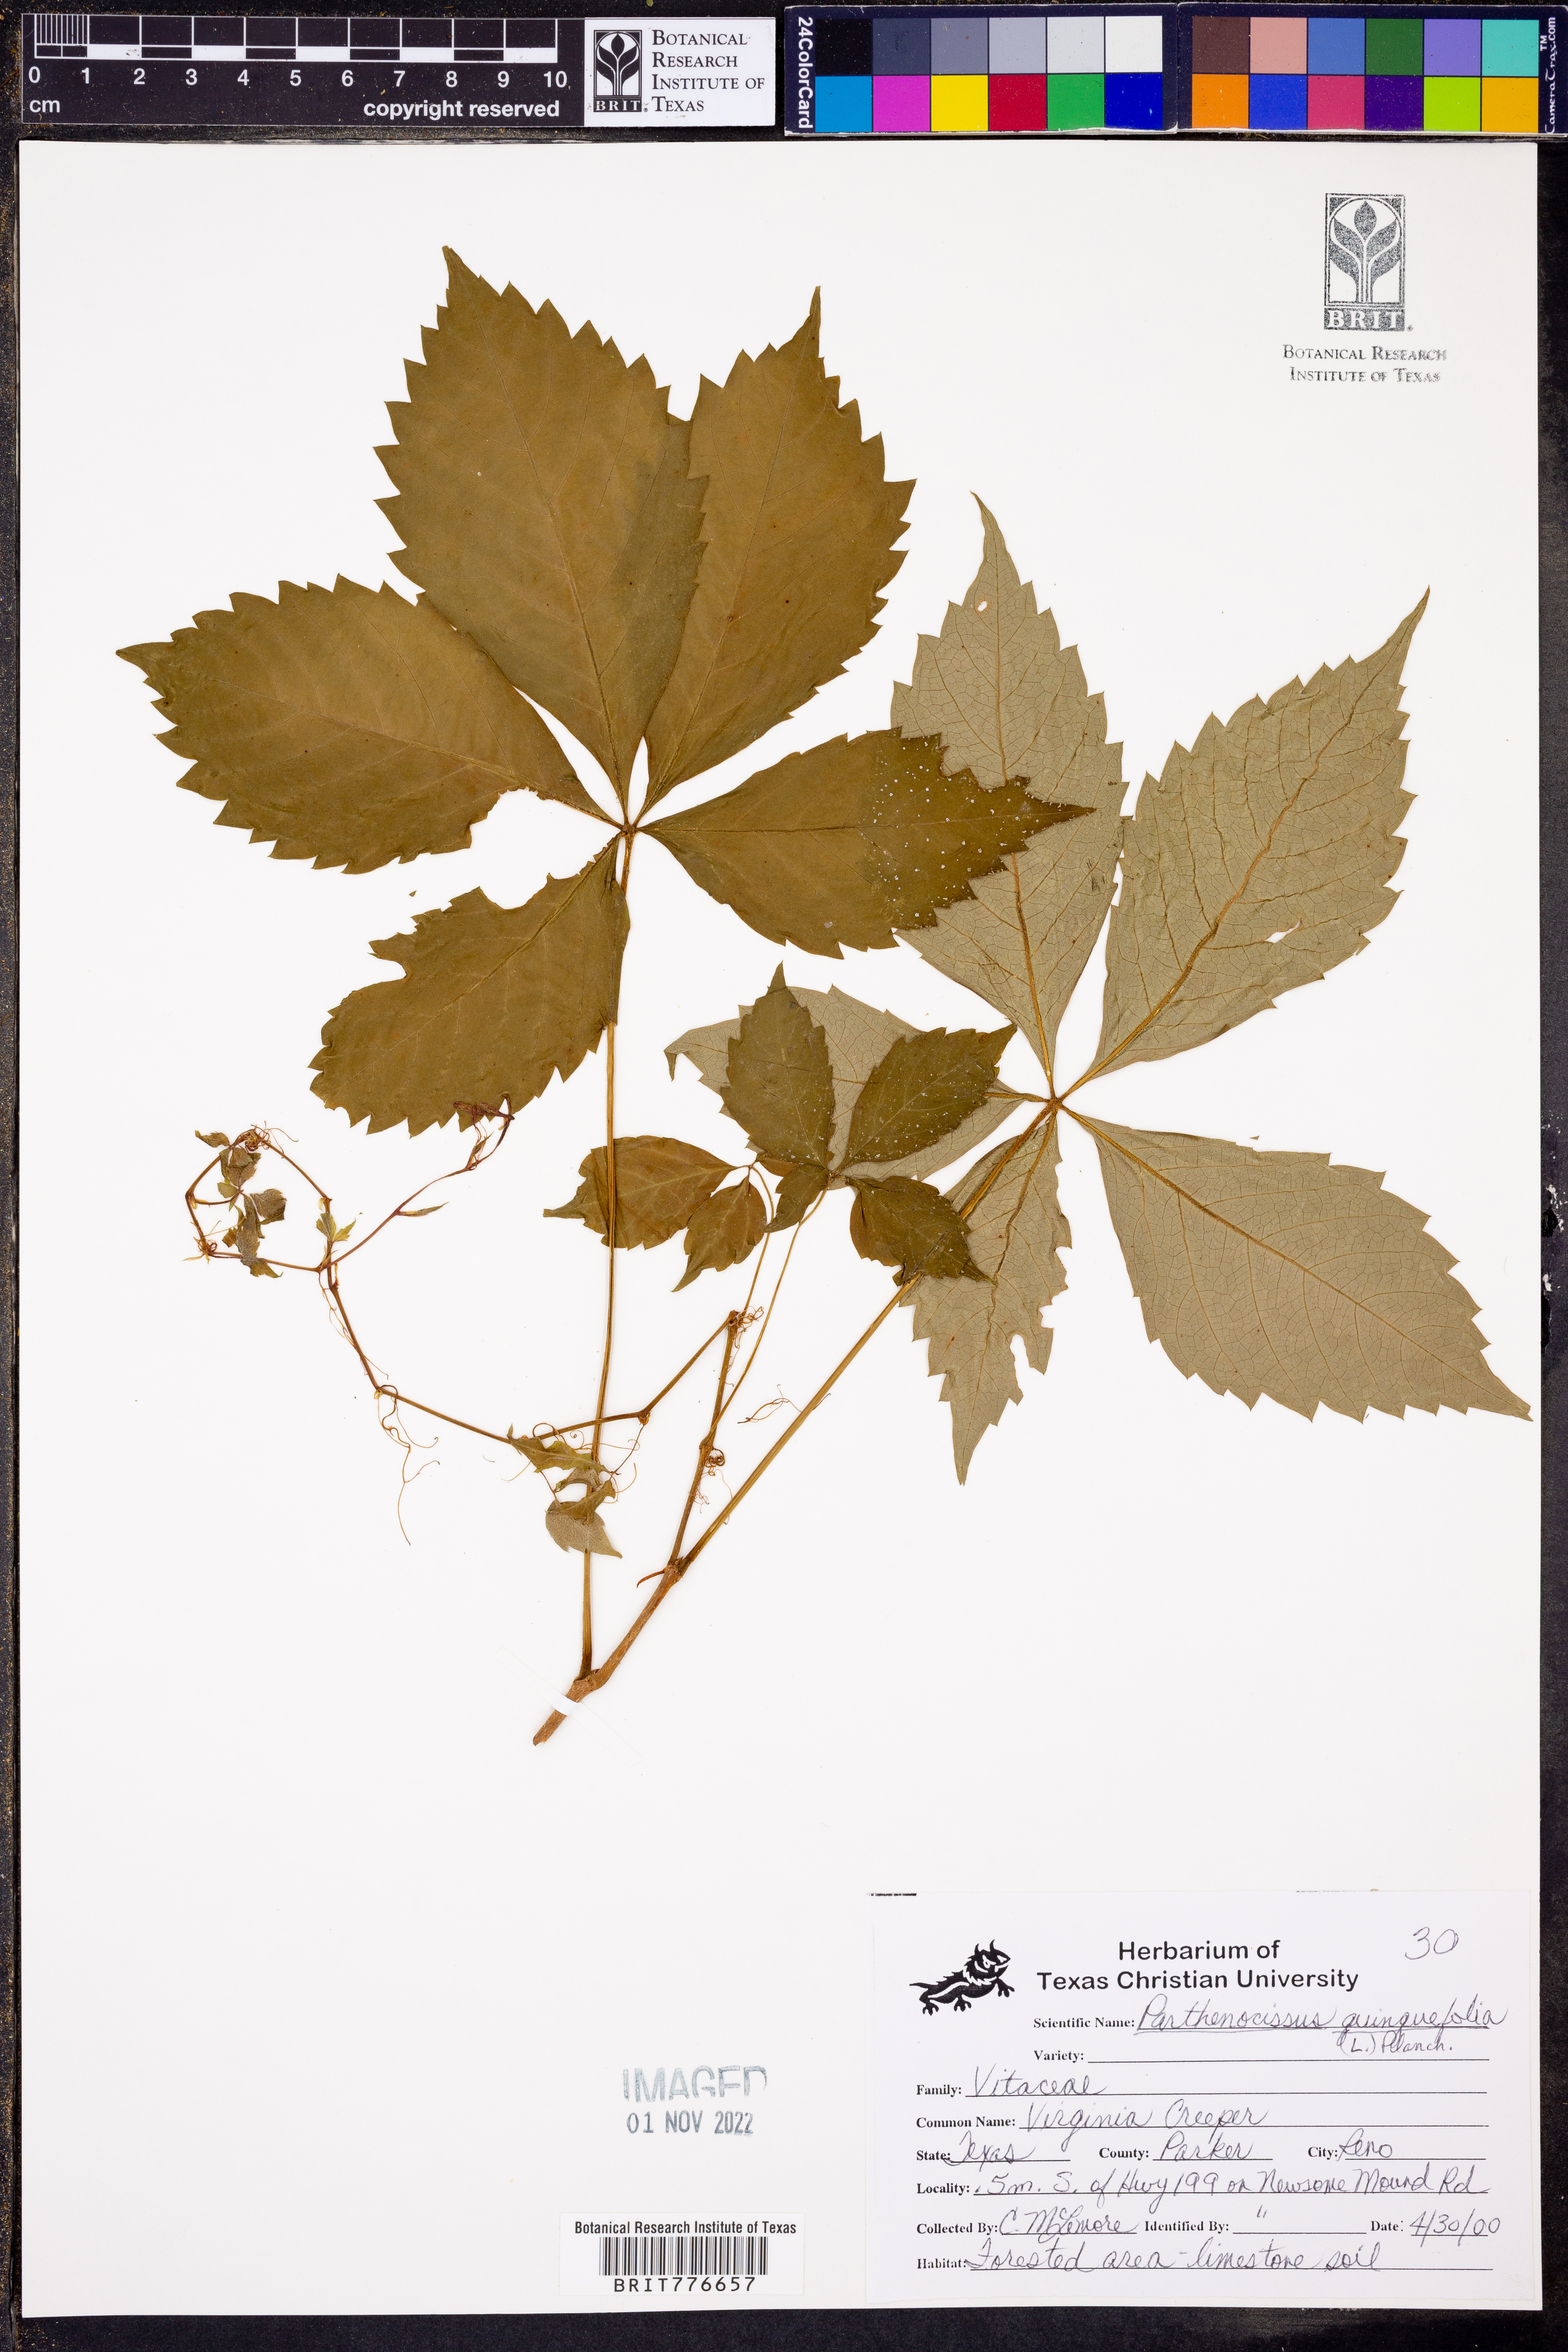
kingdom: Plantae
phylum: Tracheophyta
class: Magnoliopsida
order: Vitales
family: Vitaceae
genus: Parthenocissus
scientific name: Parthenocissus quinquefolia
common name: Virginia-creeper
